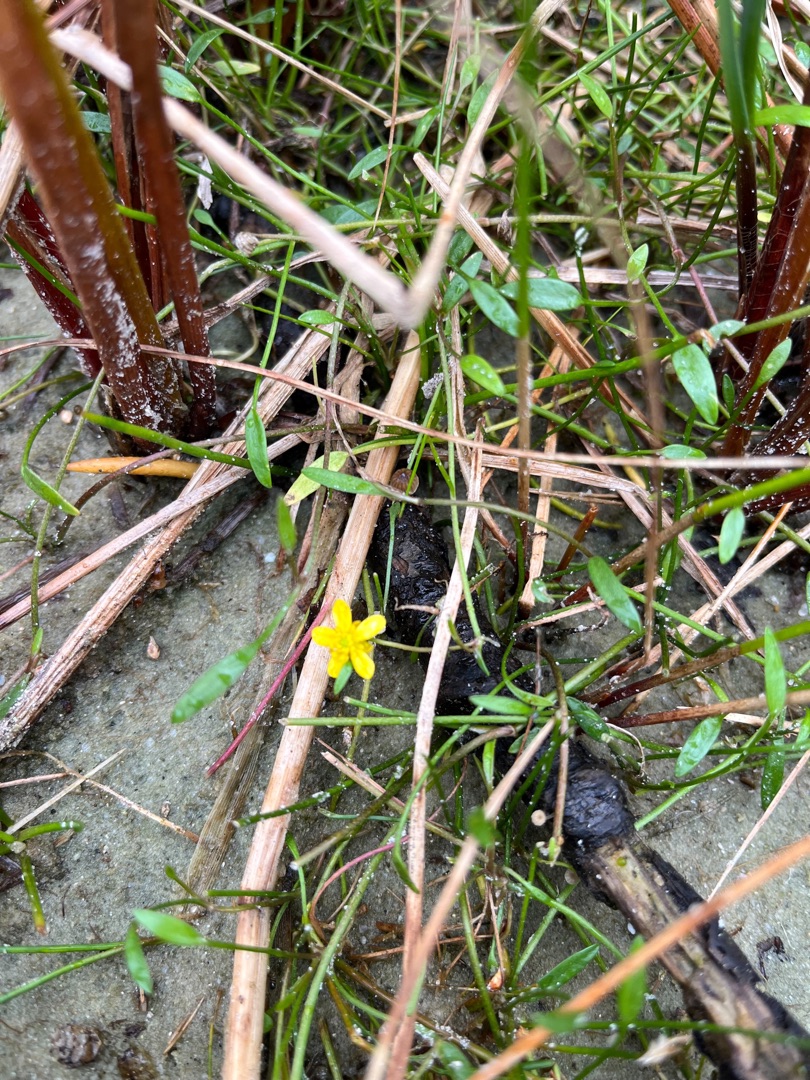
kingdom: Plantae
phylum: Tracheophyta
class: Magnoliopsida
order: Ranunculales
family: Ranunculaceae
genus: Ranunculus
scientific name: Ranunculus flammula
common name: Kær-ranunkel
